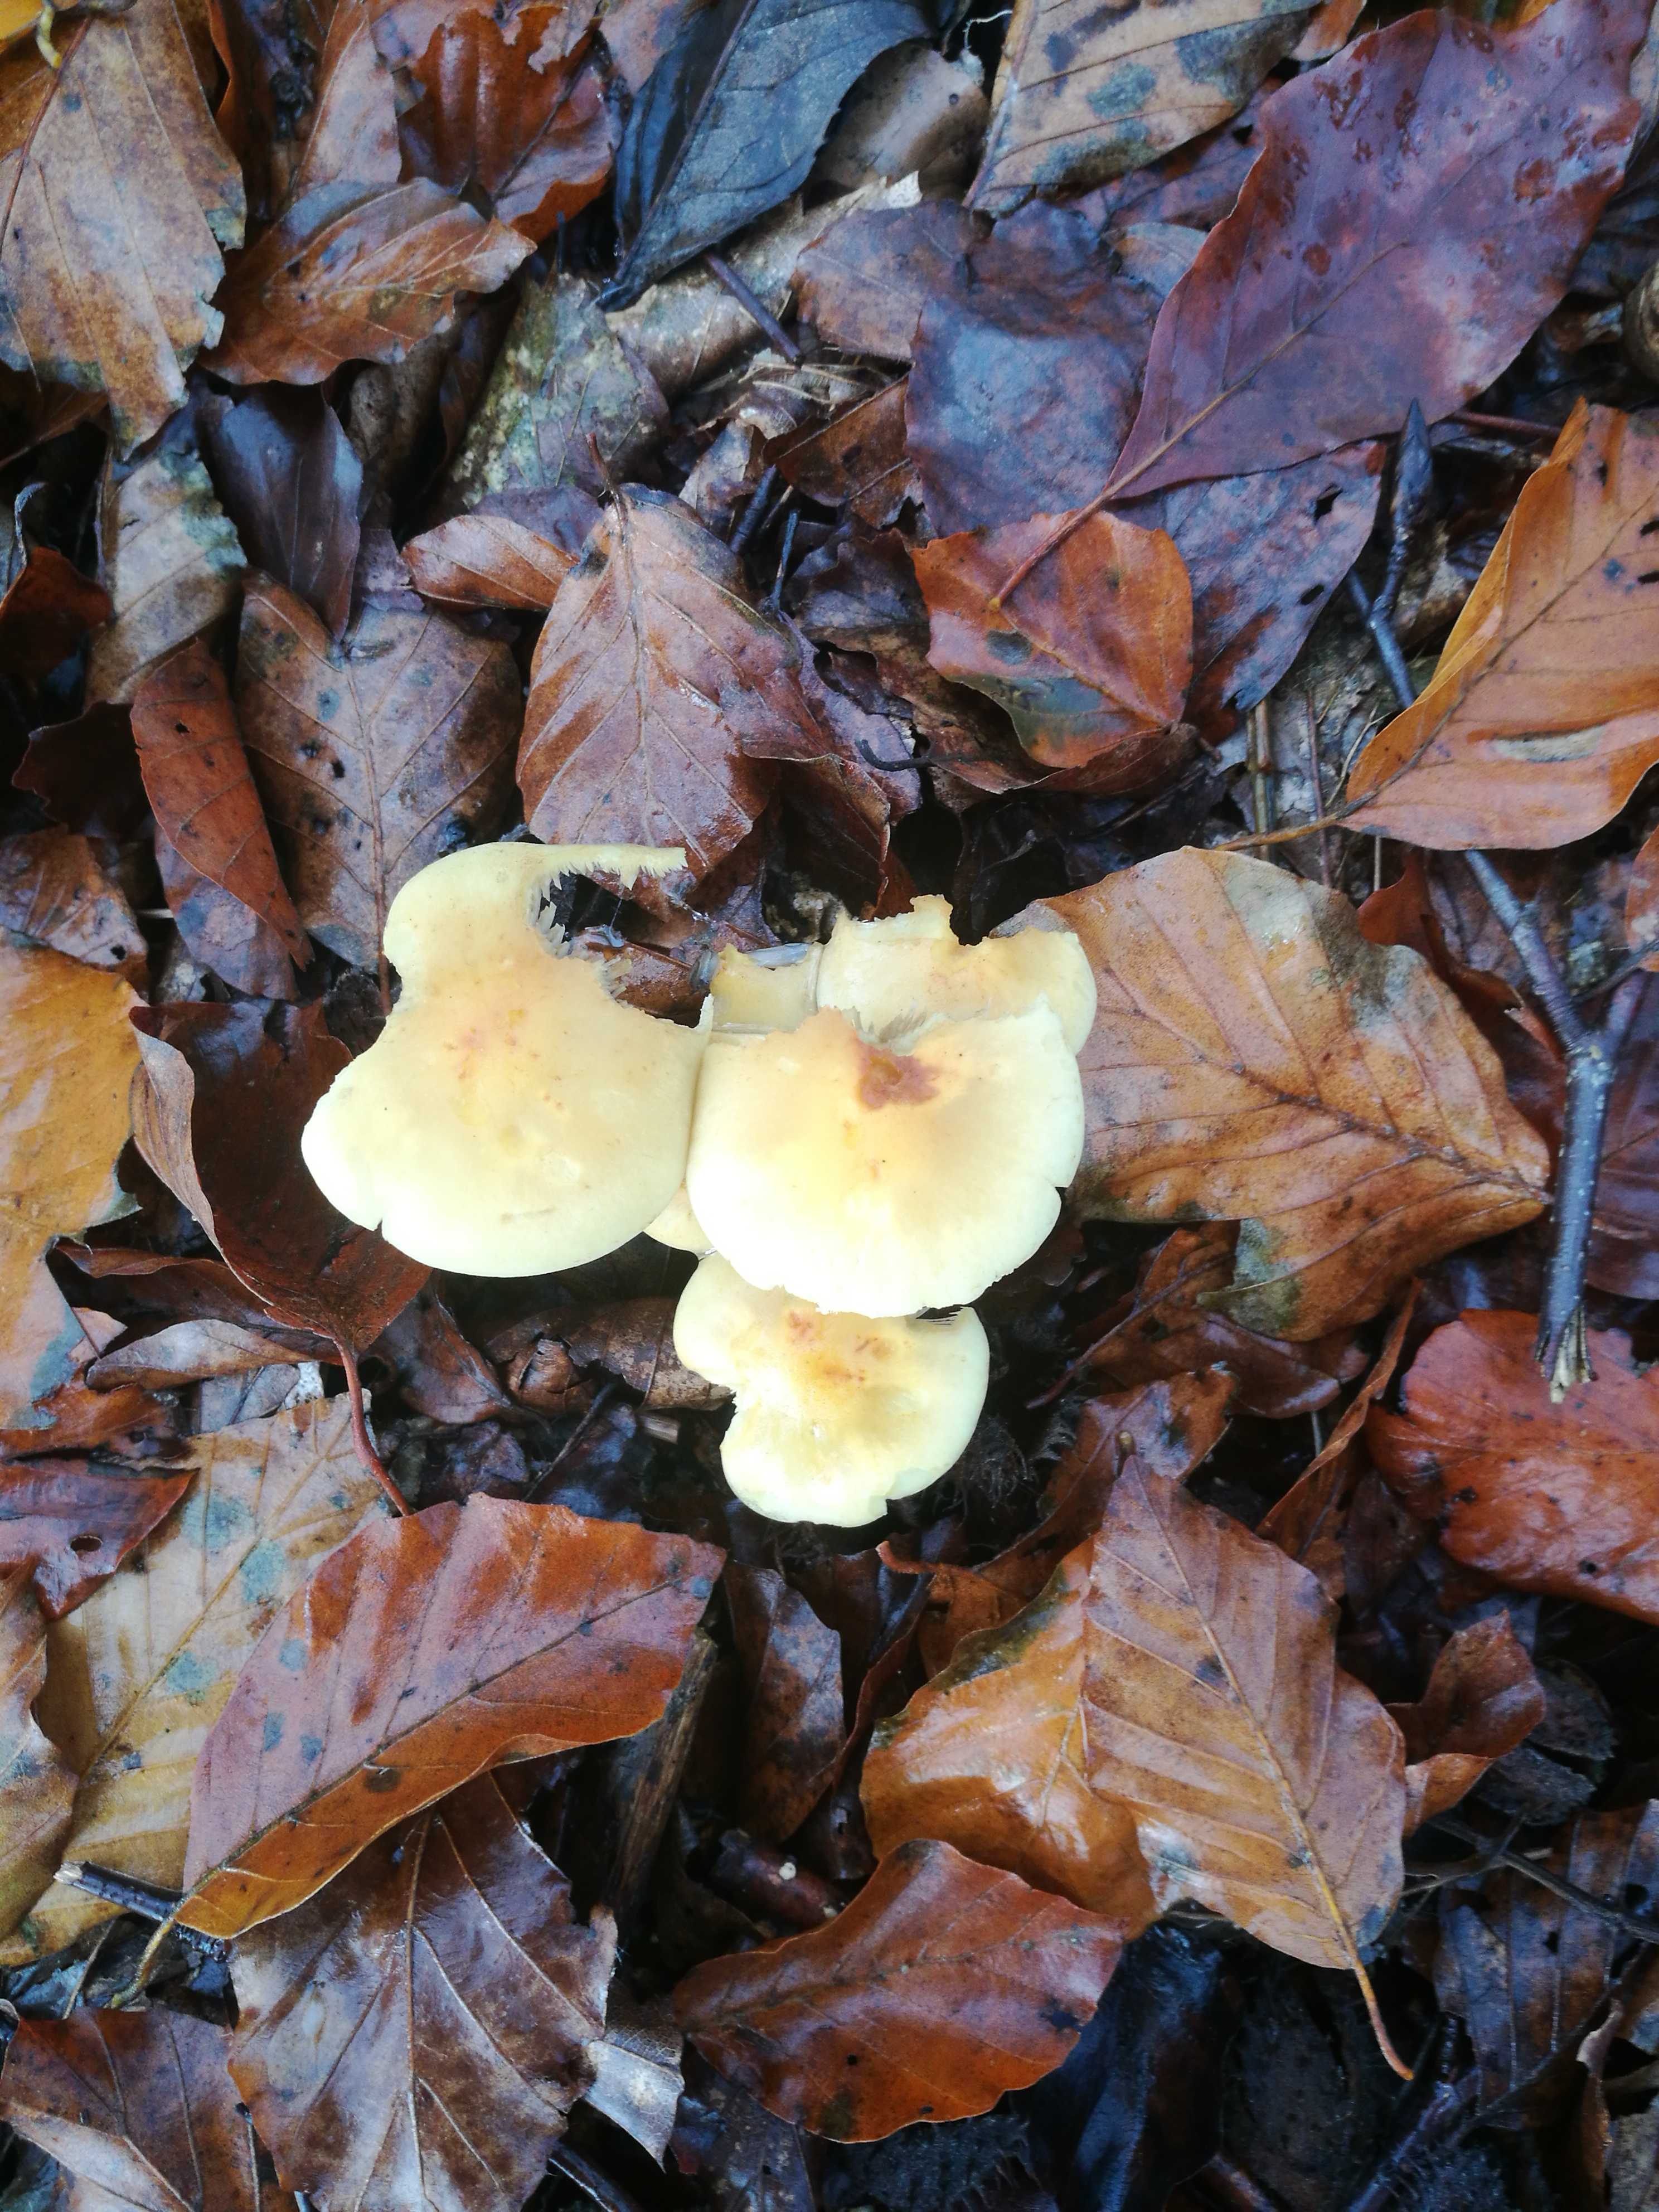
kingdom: Fungi
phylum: Basidiomycota
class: Agaricomycetes
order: Agaricales
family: Strophariaceae
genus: Hypholoma
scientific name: Hypholoma fasciculare
